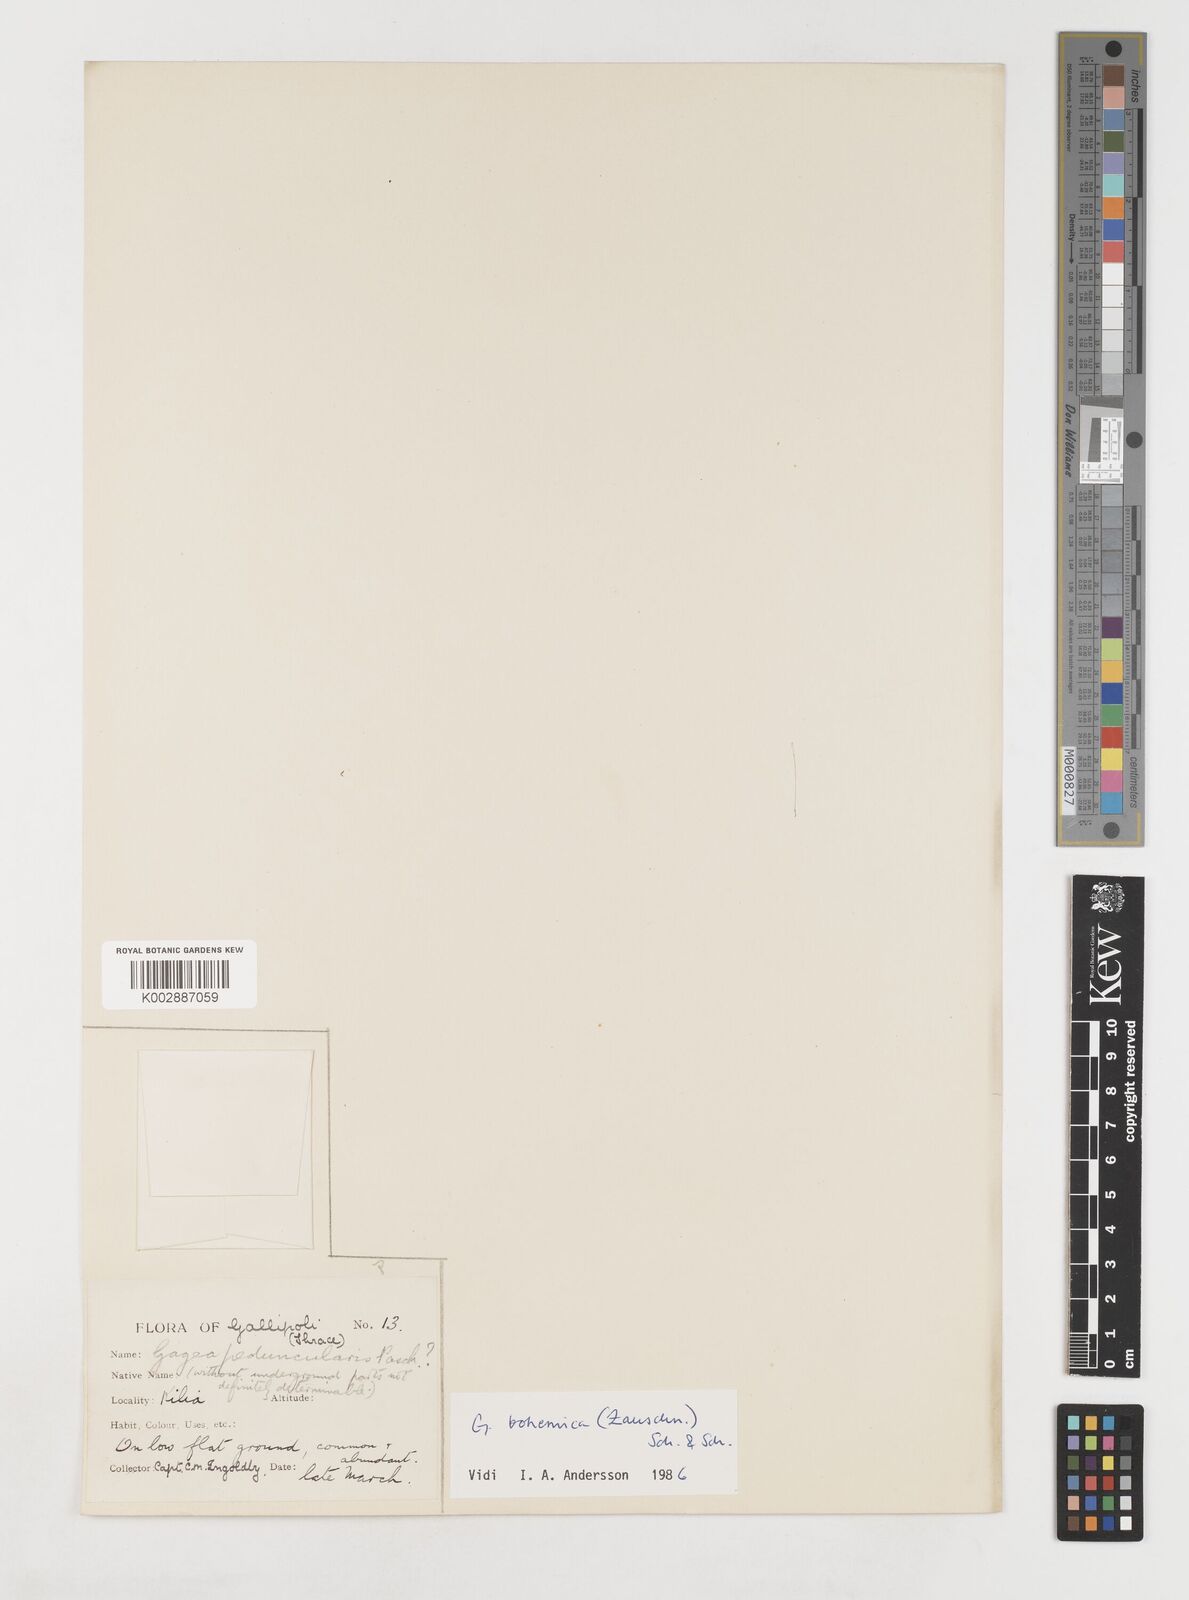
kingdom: Plantae
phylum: Tracheophyta
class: Liliopsida
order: Liliales
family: Liliaceae
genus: Gagea
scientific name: Gagea peduncularis
